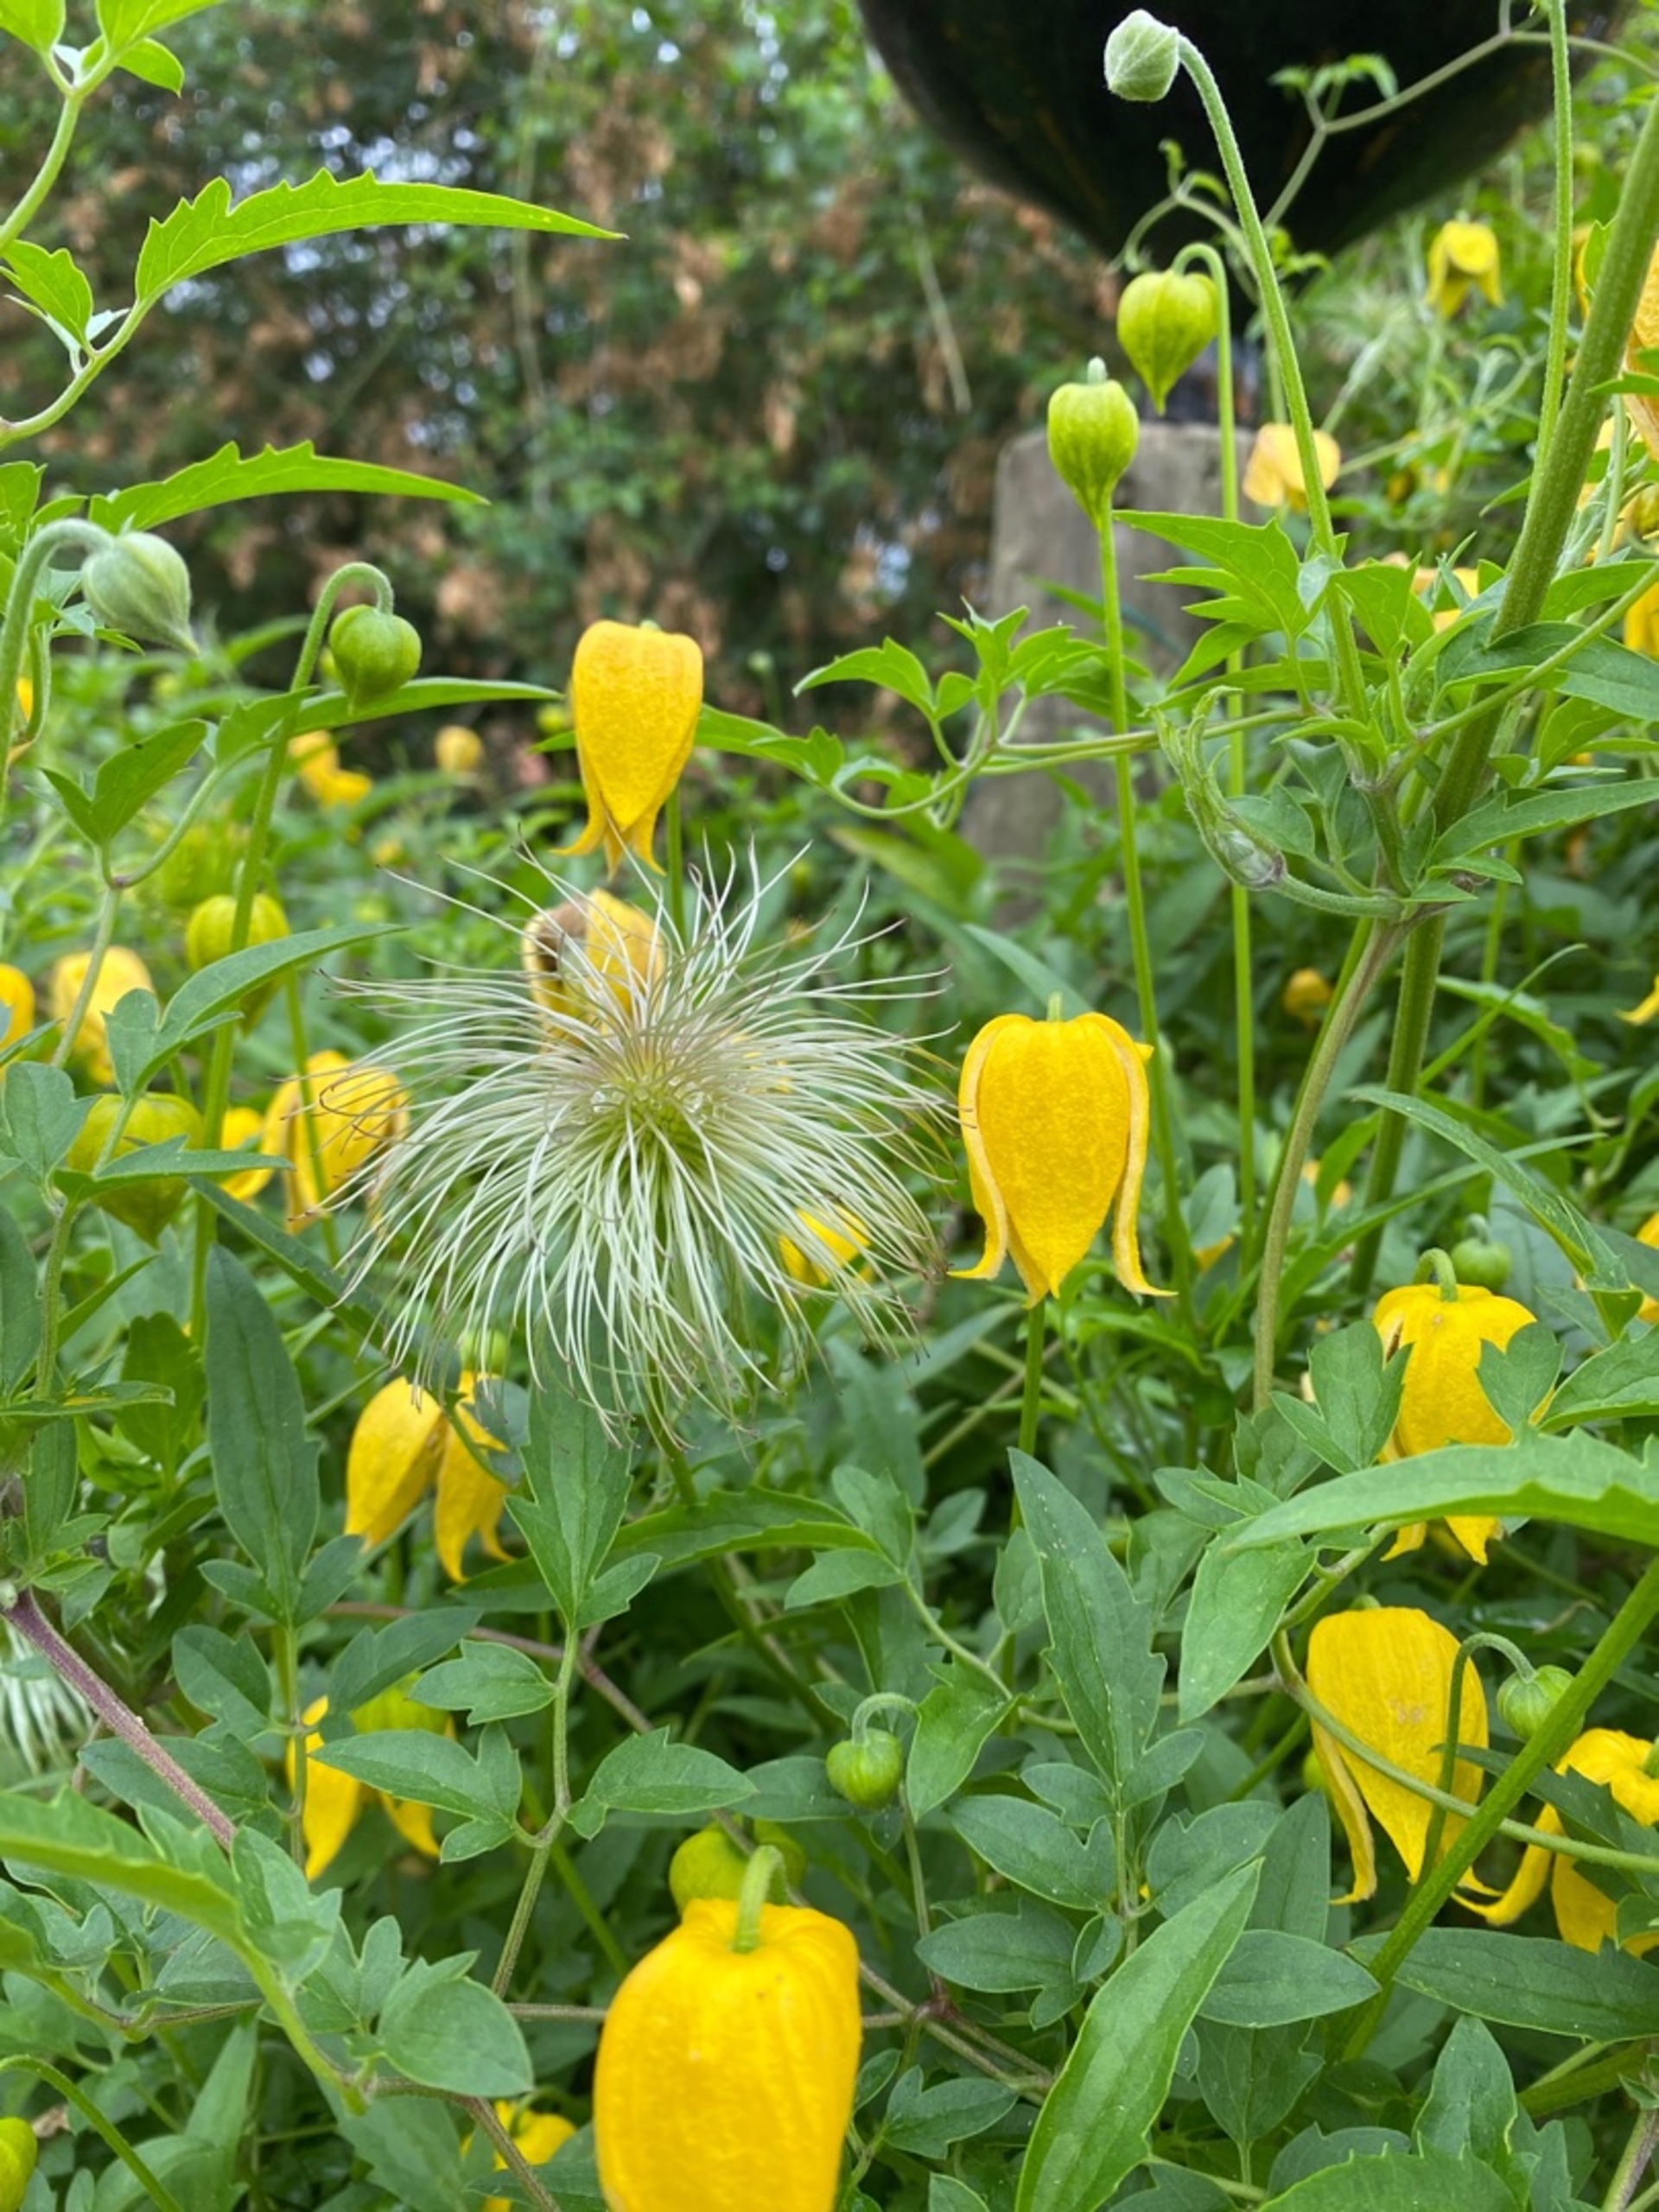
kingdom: Plantae
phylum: Tracheophyta
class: Magnoliopsida
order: Ranunculales
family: Ranunculaceae
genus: Clematis
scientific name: Clematis tangutica
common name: Gul skovranke
